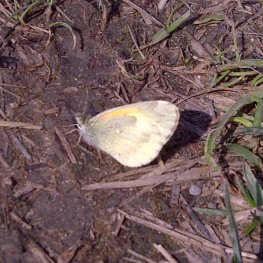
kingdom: Animalia
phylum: Arthropoda
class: Insecta
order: Lepidoptera
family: Pieridae
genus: Nathalis
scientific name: Nathalis iole
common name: Dainty Sulphur
